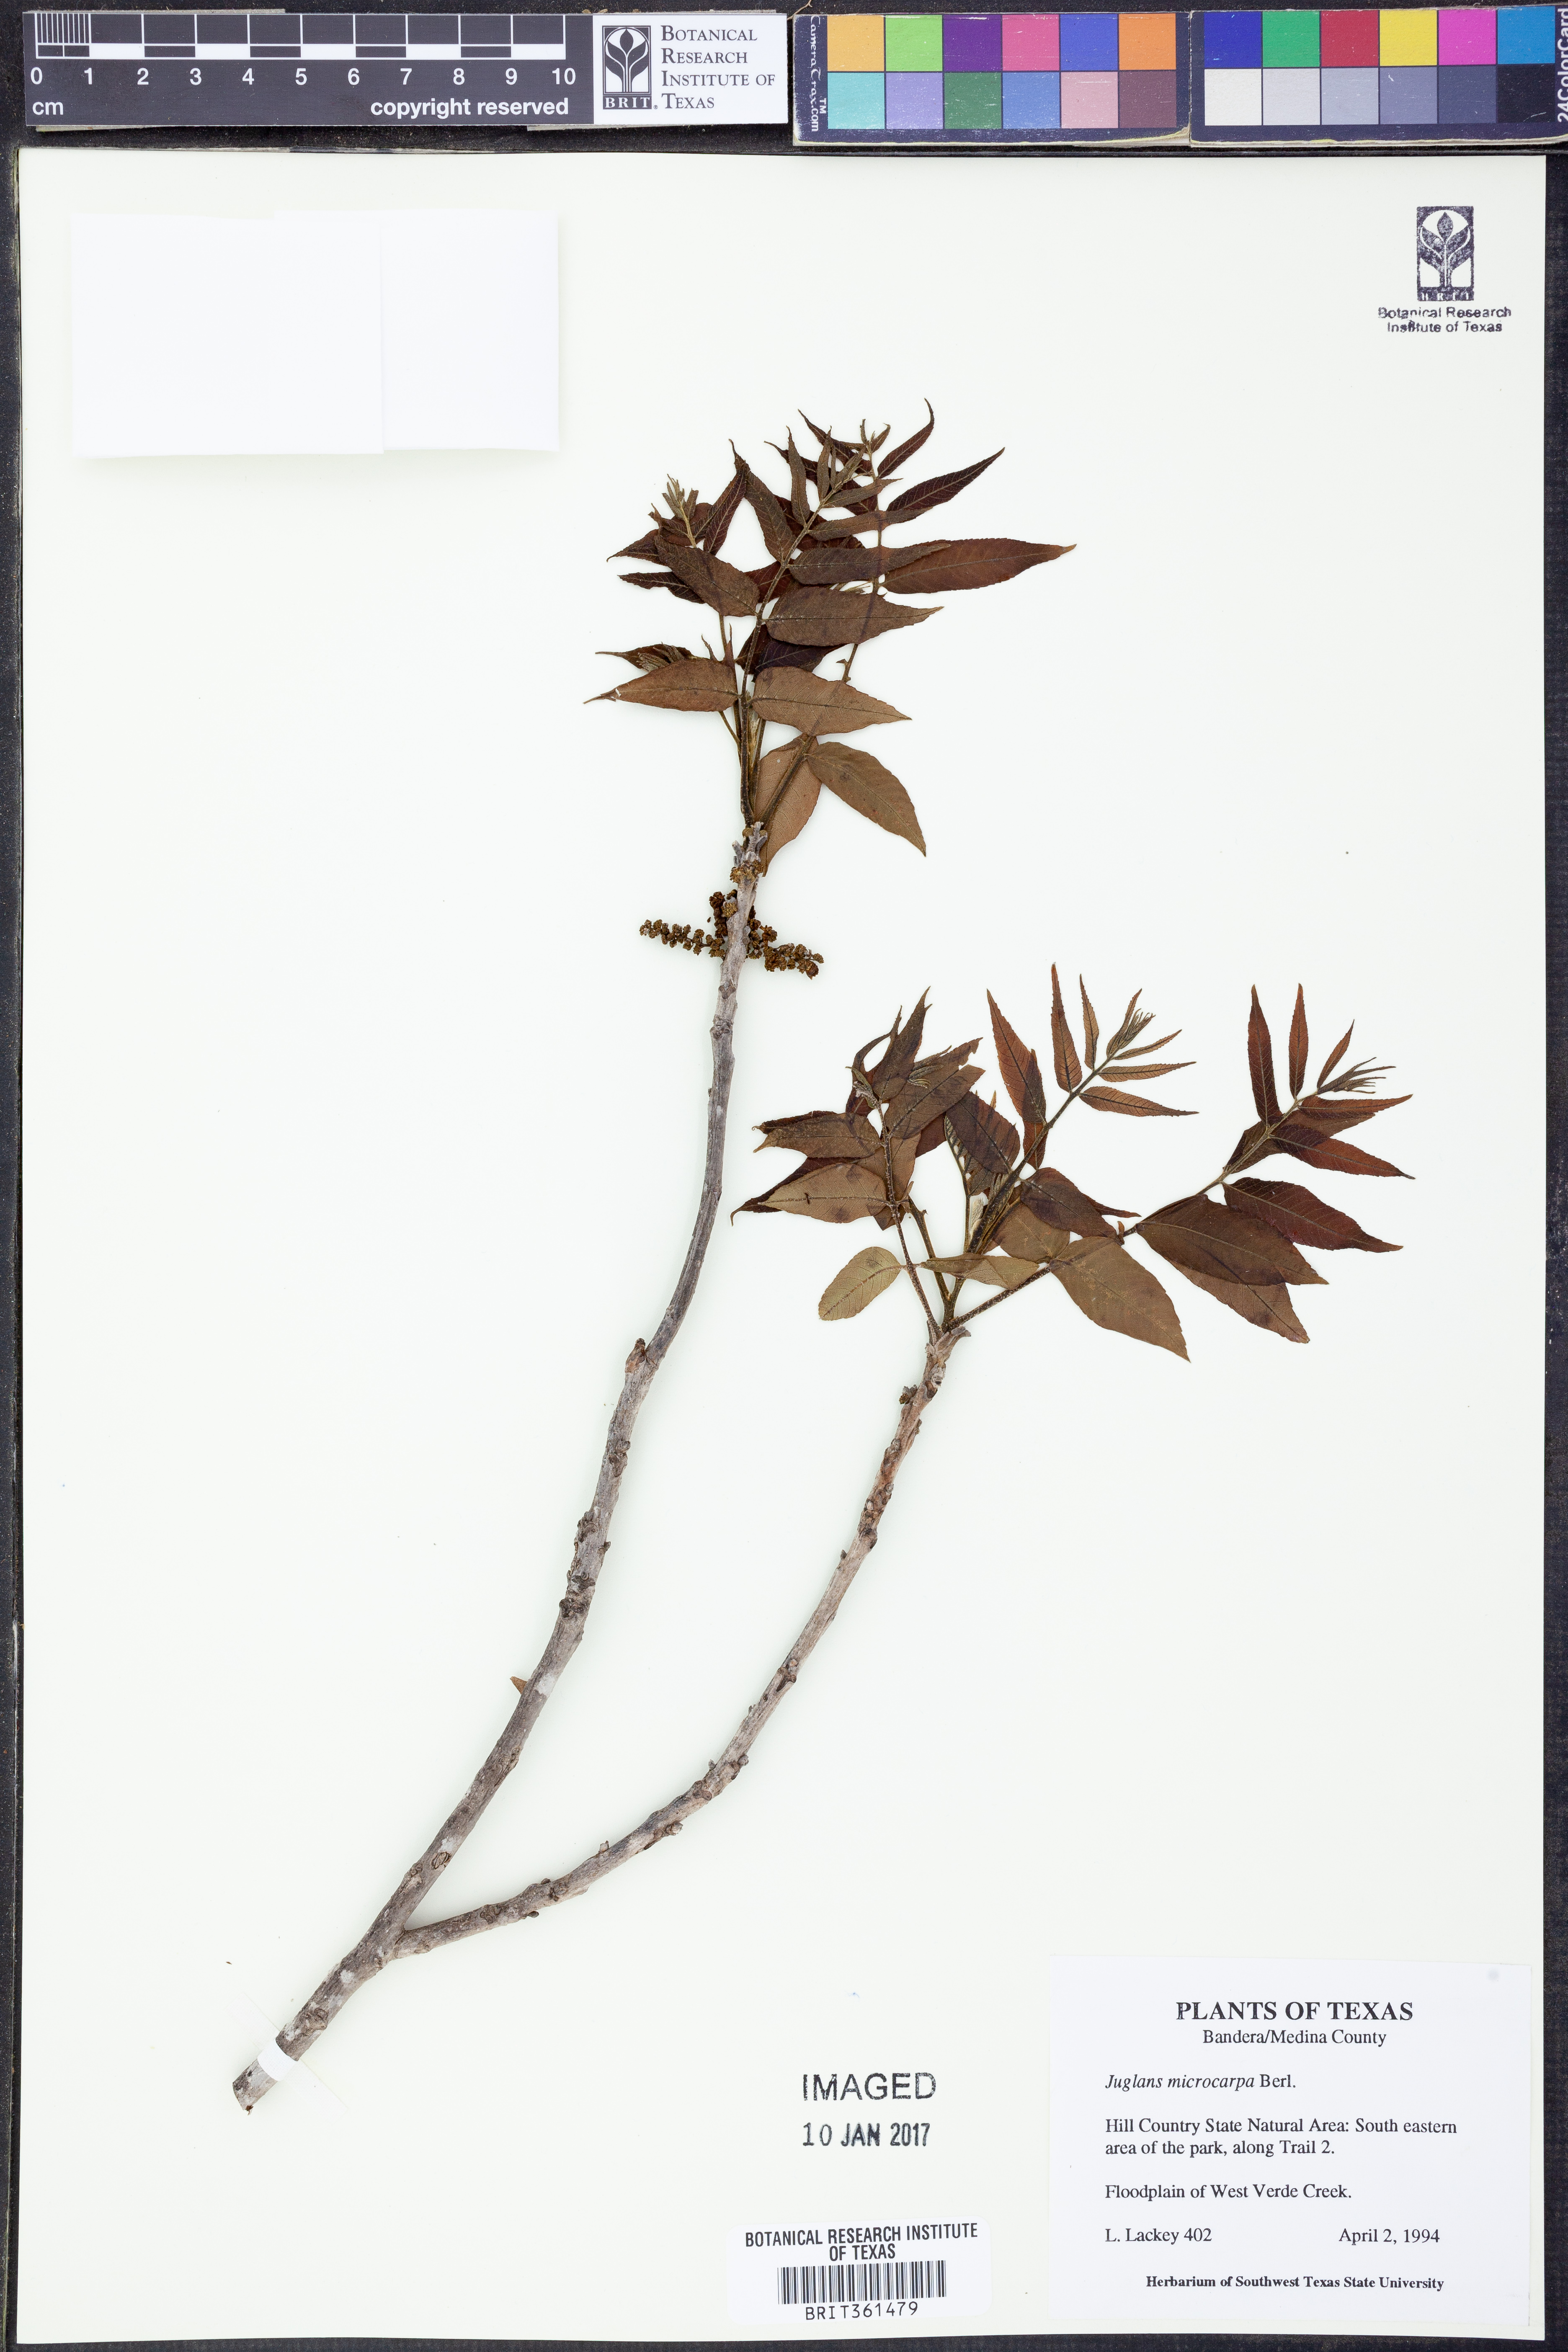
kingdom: Plantae
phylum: Tracheophyta
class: Magnoliopsida
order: Fagales
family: Juglandaceae
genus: Juglans
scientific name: Juglans microcarpa
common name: Texas walnut
